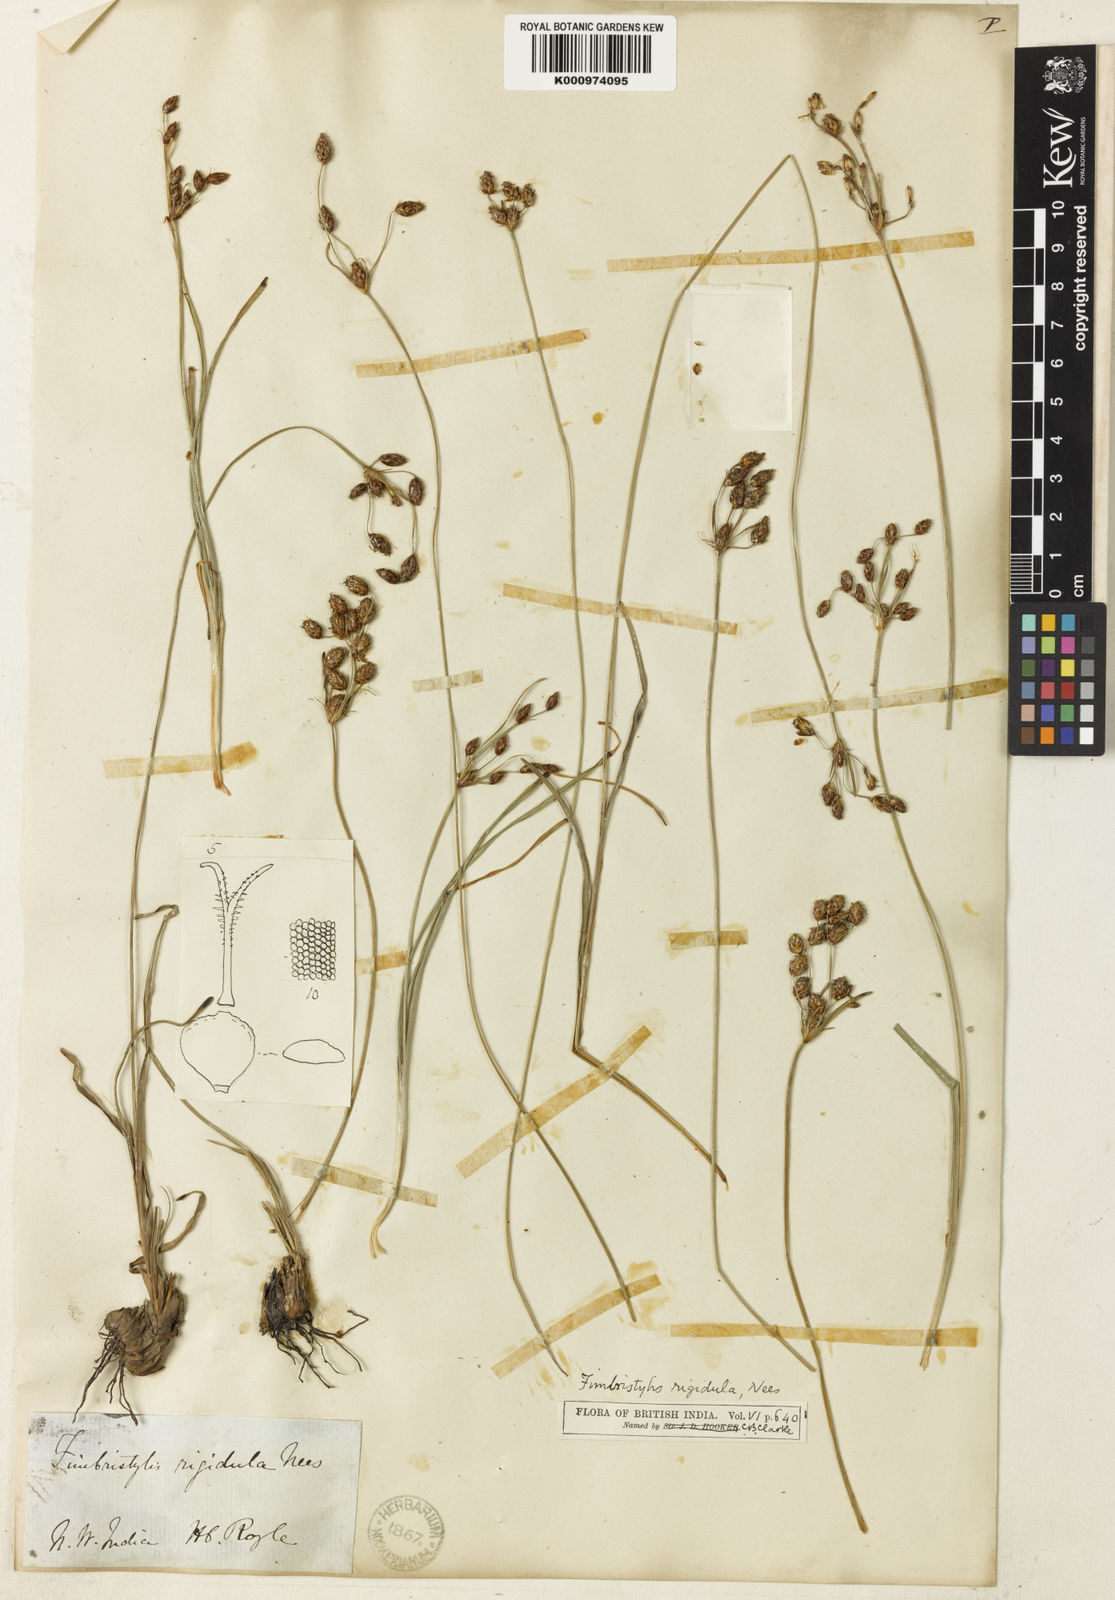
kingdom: Plantae
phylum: Tracheophyta
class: Liliopsida
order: Poales
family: Cyperaceae
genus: Fimbristylis
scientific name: Fimbristylis rigidula
